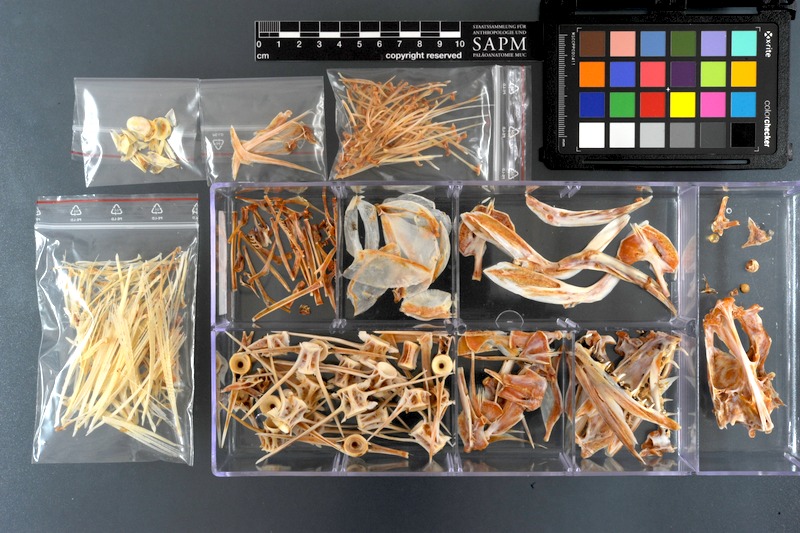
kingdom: Animalia
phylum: Chordata
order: Pleuronectiformes
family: Psettodidae
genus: Psettodes
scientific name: Psettodes erumei
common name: Indian halibut
